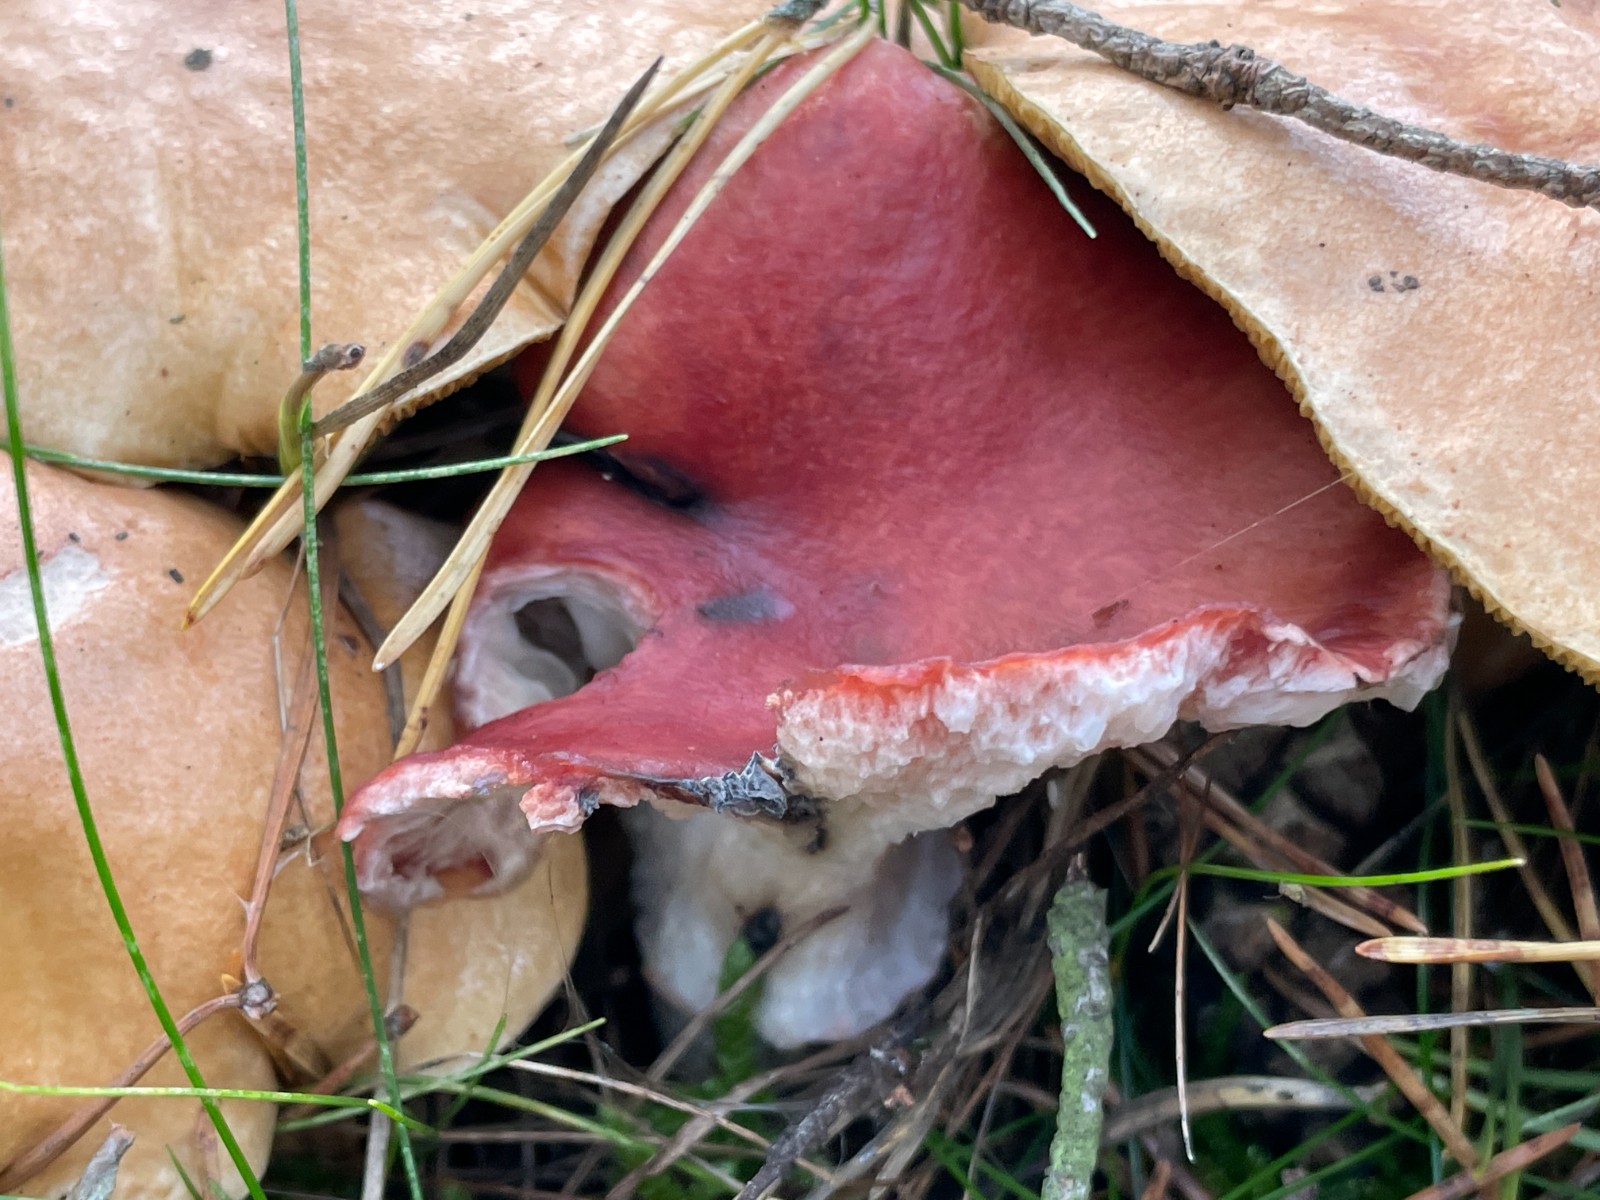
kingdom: Fungi
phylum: Basidiomycota
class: Agaricomycetes
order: Boletales
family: Gomphidiaceae
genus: Gomphidius
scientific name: Gomphidius roseus
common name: rosenrød slimslør
